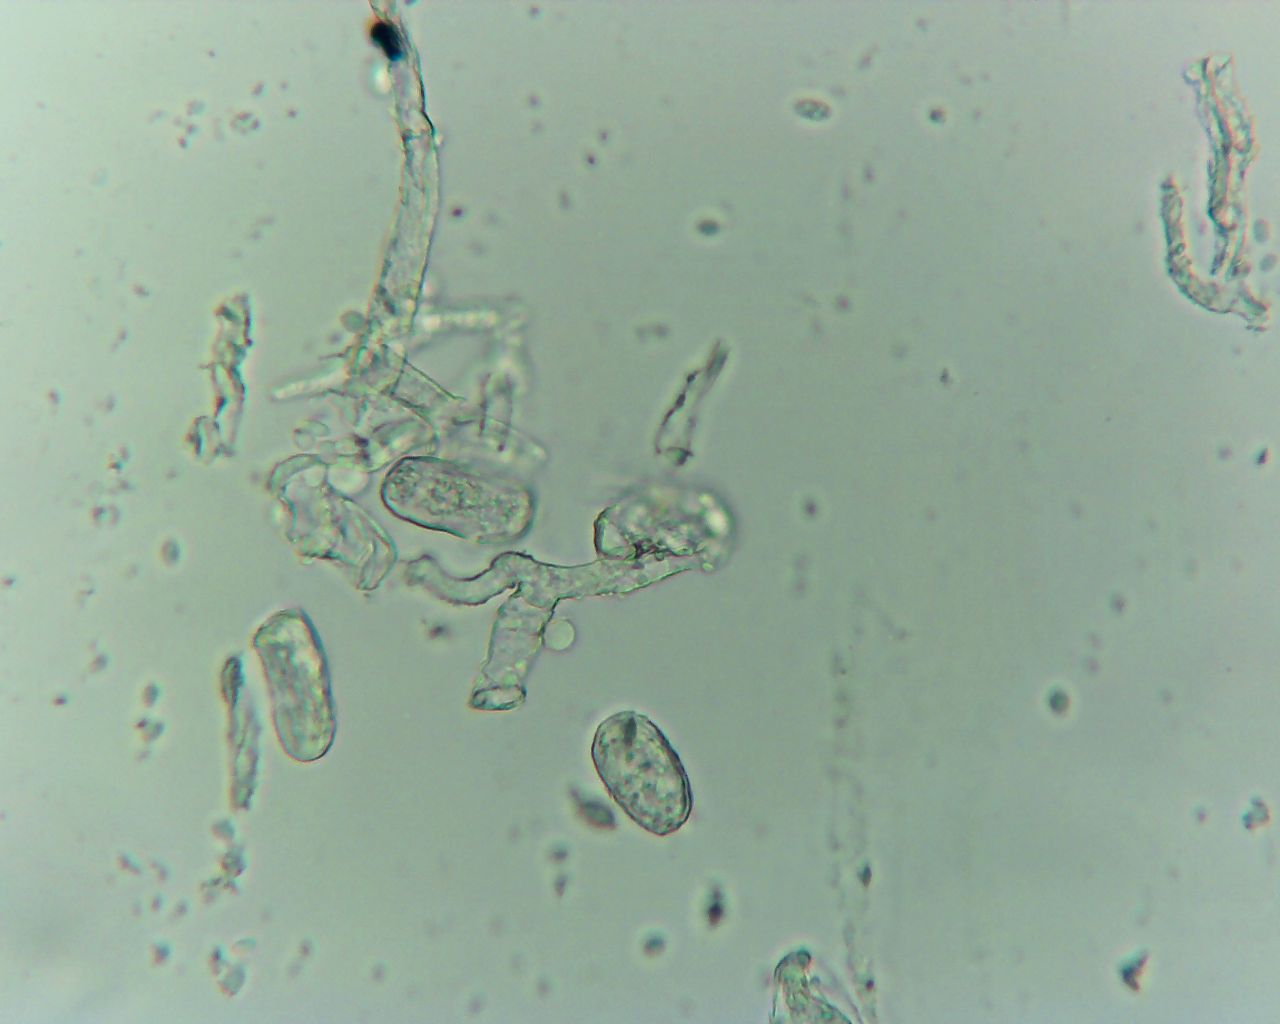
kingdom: Fungi
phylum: Ascomycota
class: Leotiomycetes
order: Helotiales
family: Erysiphaceae
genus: Erysiphe
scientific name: Erysiphe mougeotii
